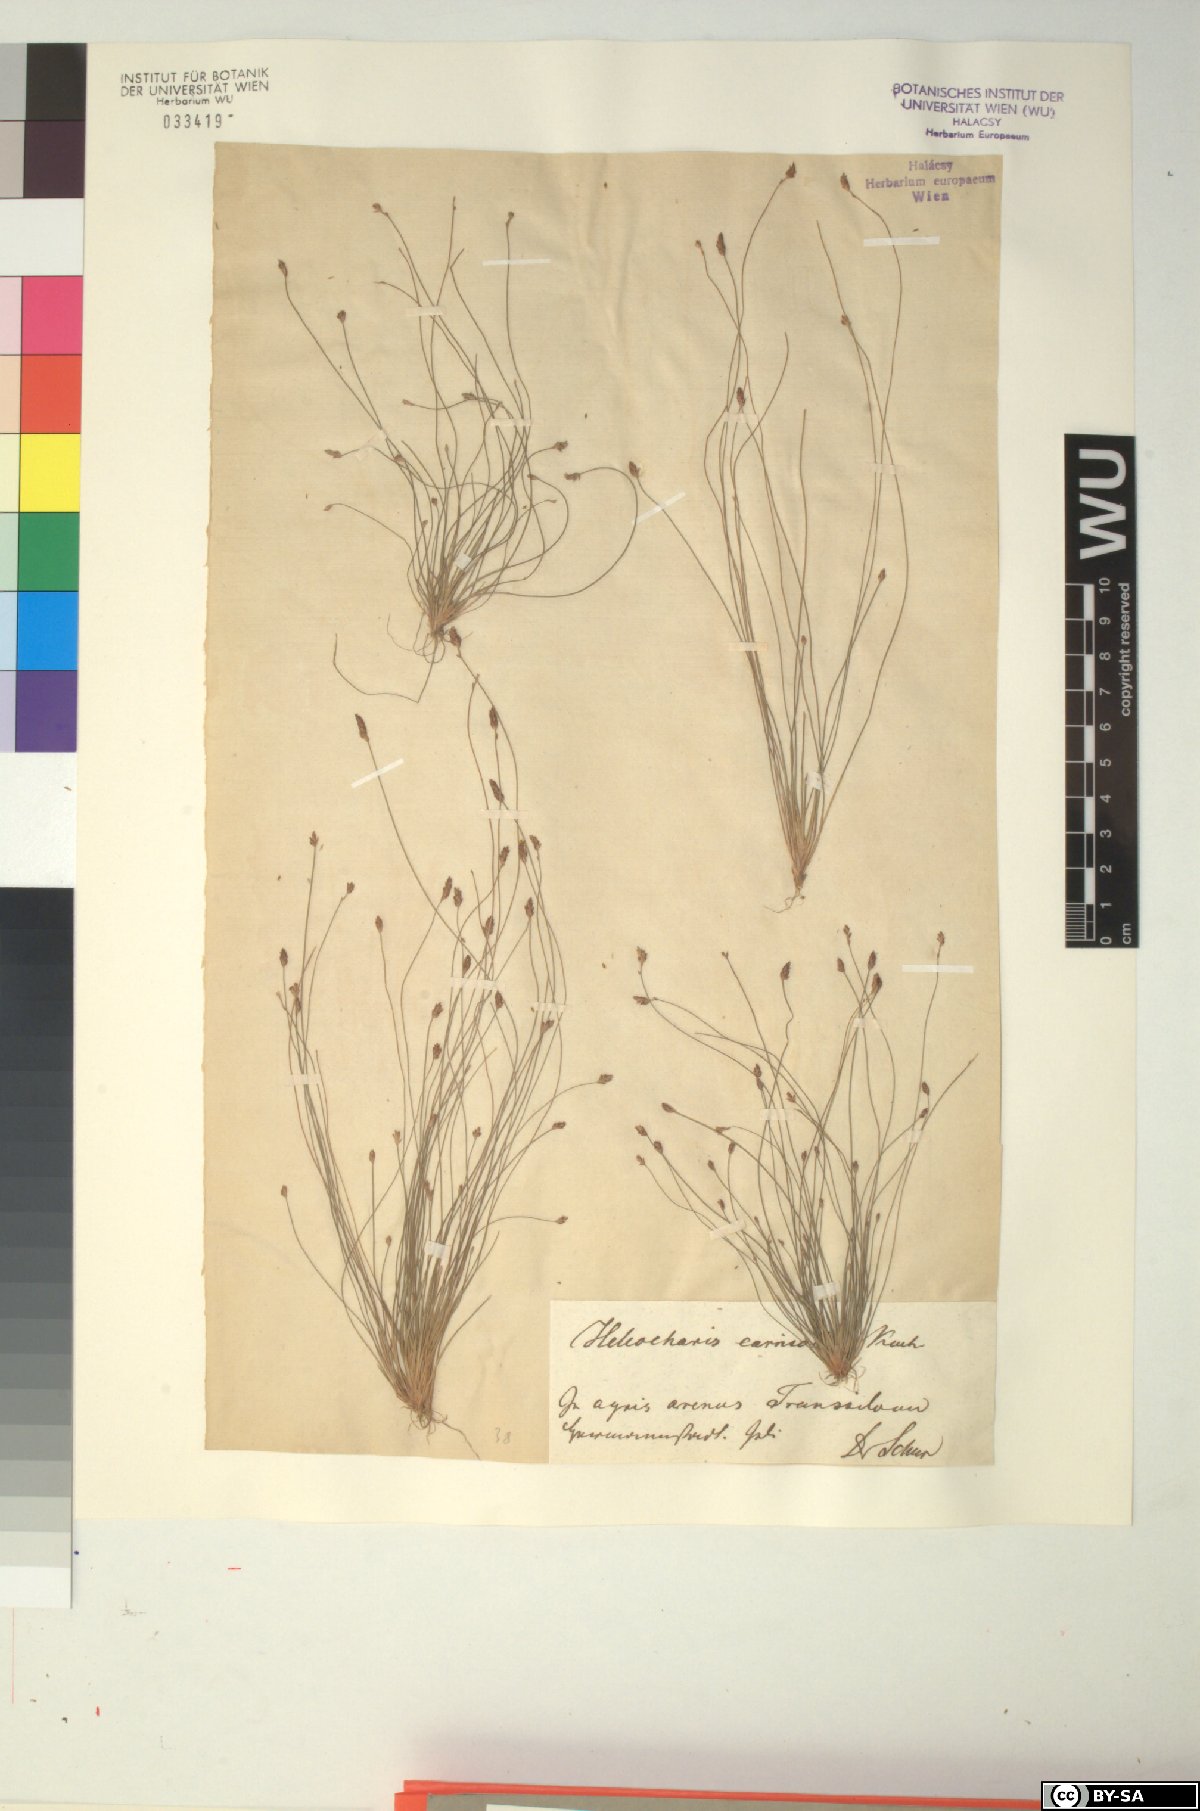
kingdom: Plantae
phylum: Tracheophyta
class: Liliopsida
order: Poales
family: Cyperaceae
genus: Eleocharis
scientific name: Eleocharis carniolica
